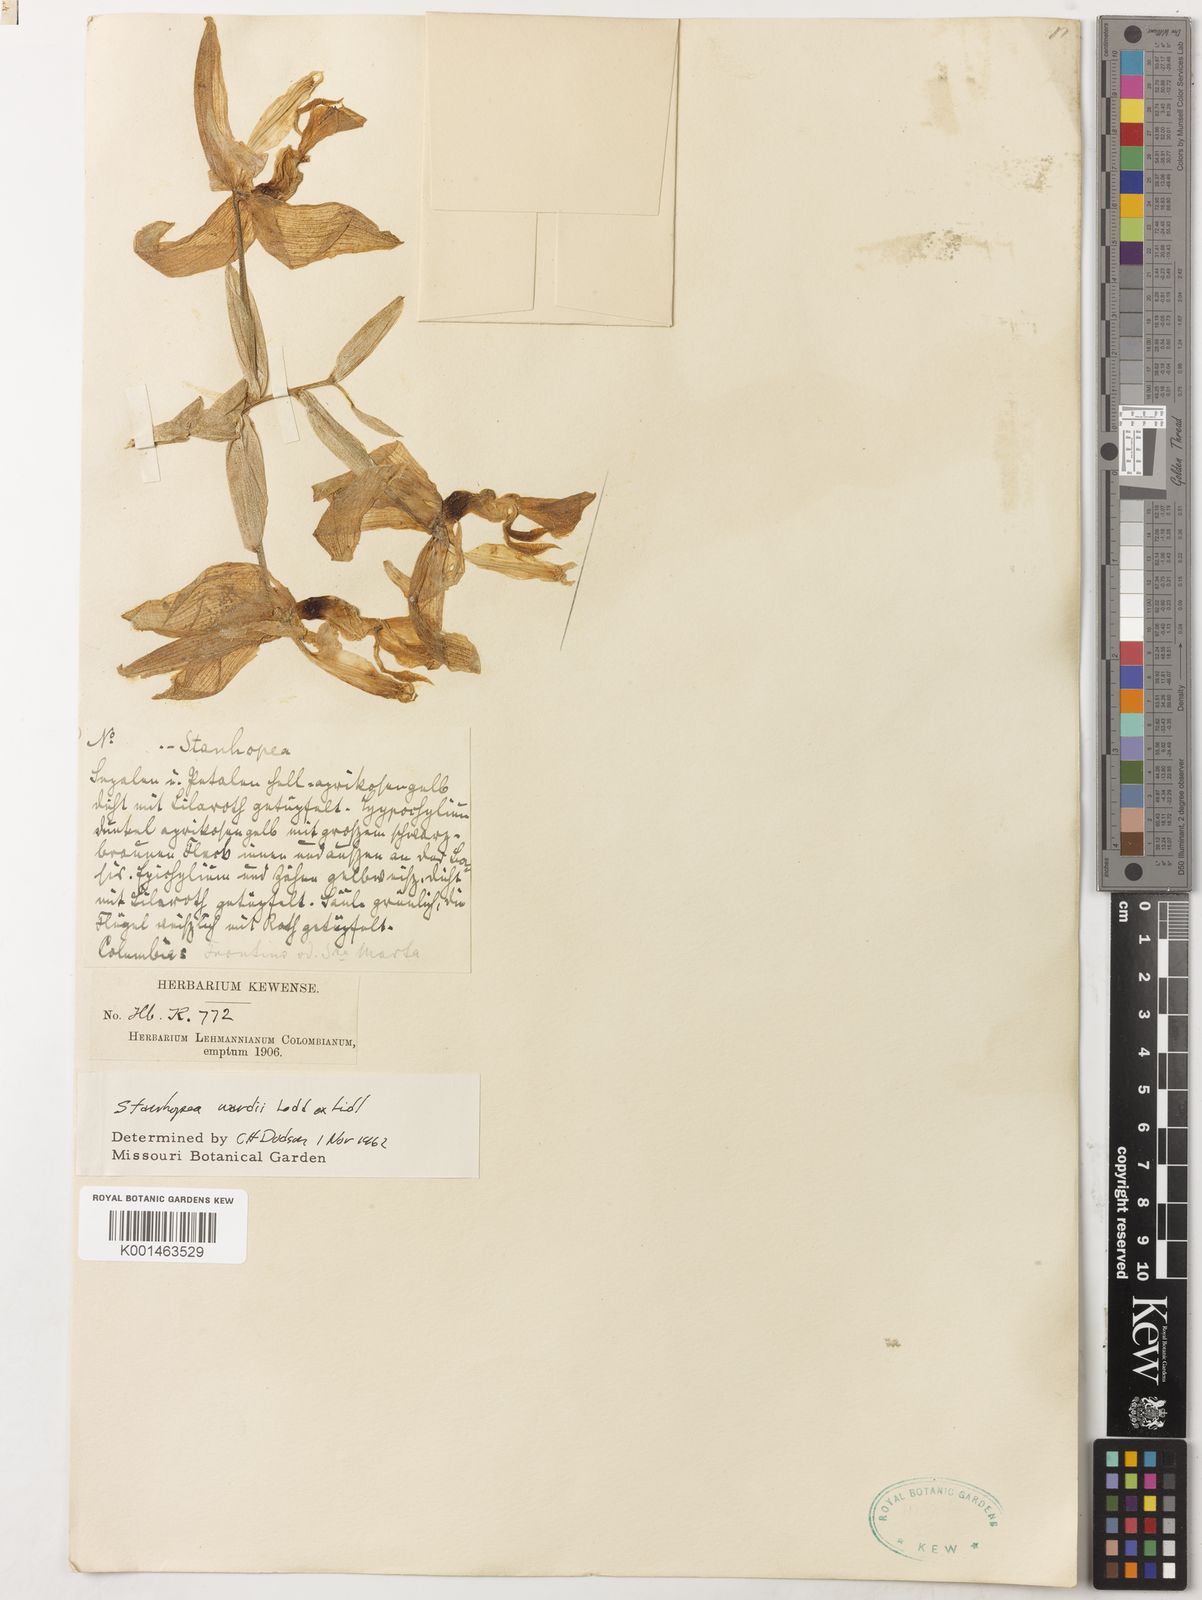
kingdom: Plantae
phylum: Tracheophyta
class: Liliopsida
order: Asparagales
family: Orchidaceae
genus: Stanhopea
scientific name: Stanhopea wardii
